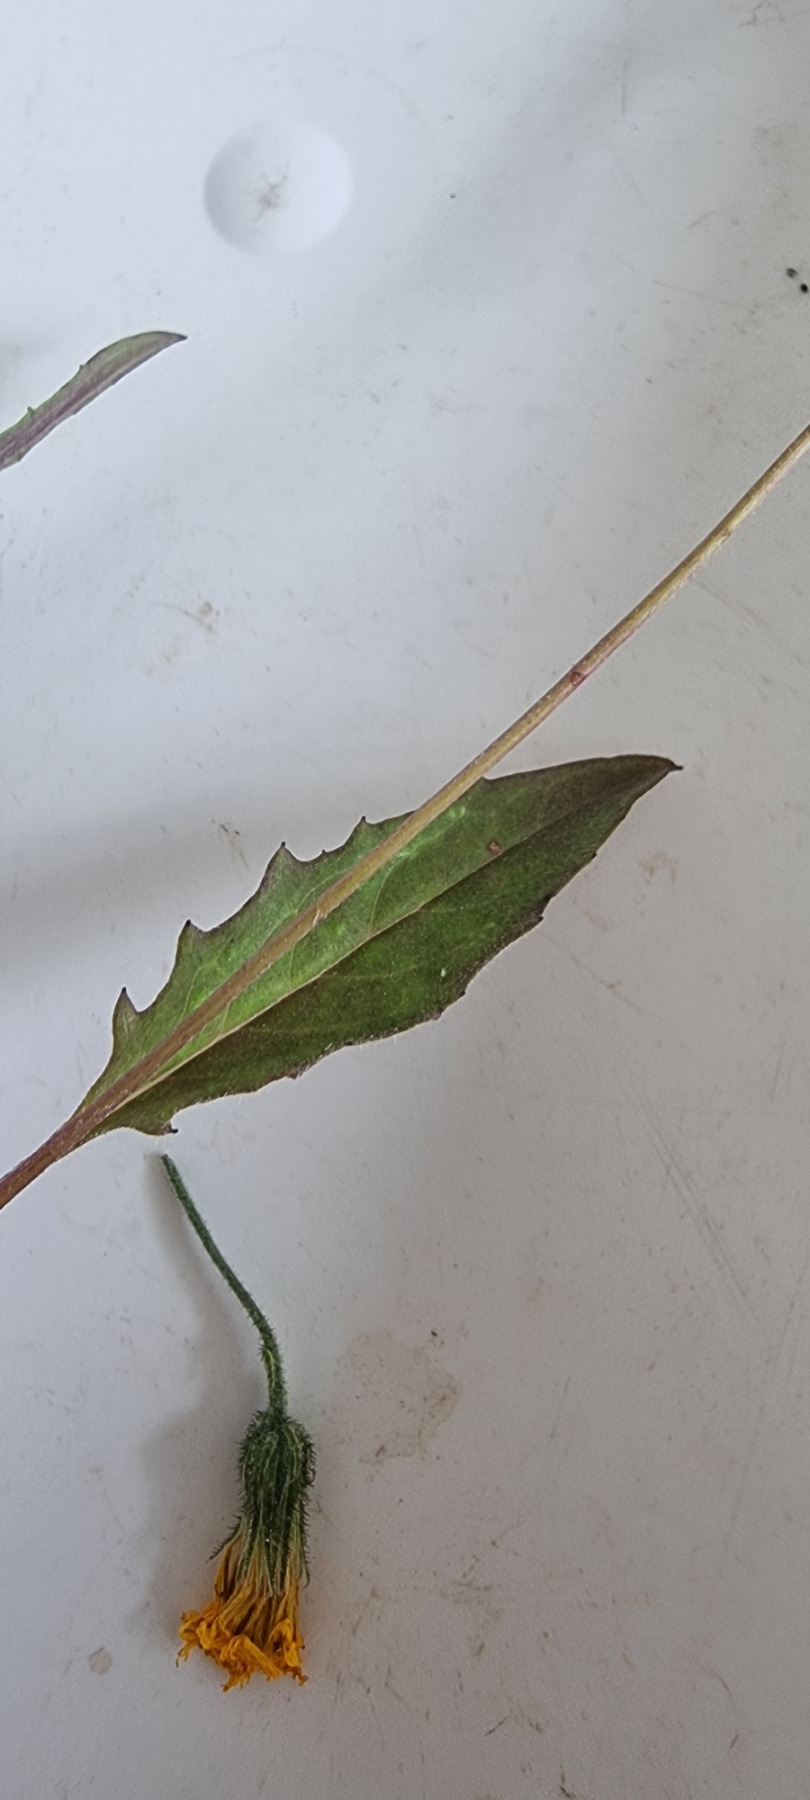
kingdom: Plantae
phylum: Tracheophyta
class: Magnoliopsida
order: Asterales
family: Asteraceae
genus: Hieracium
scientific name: Hieracium vulgatum
